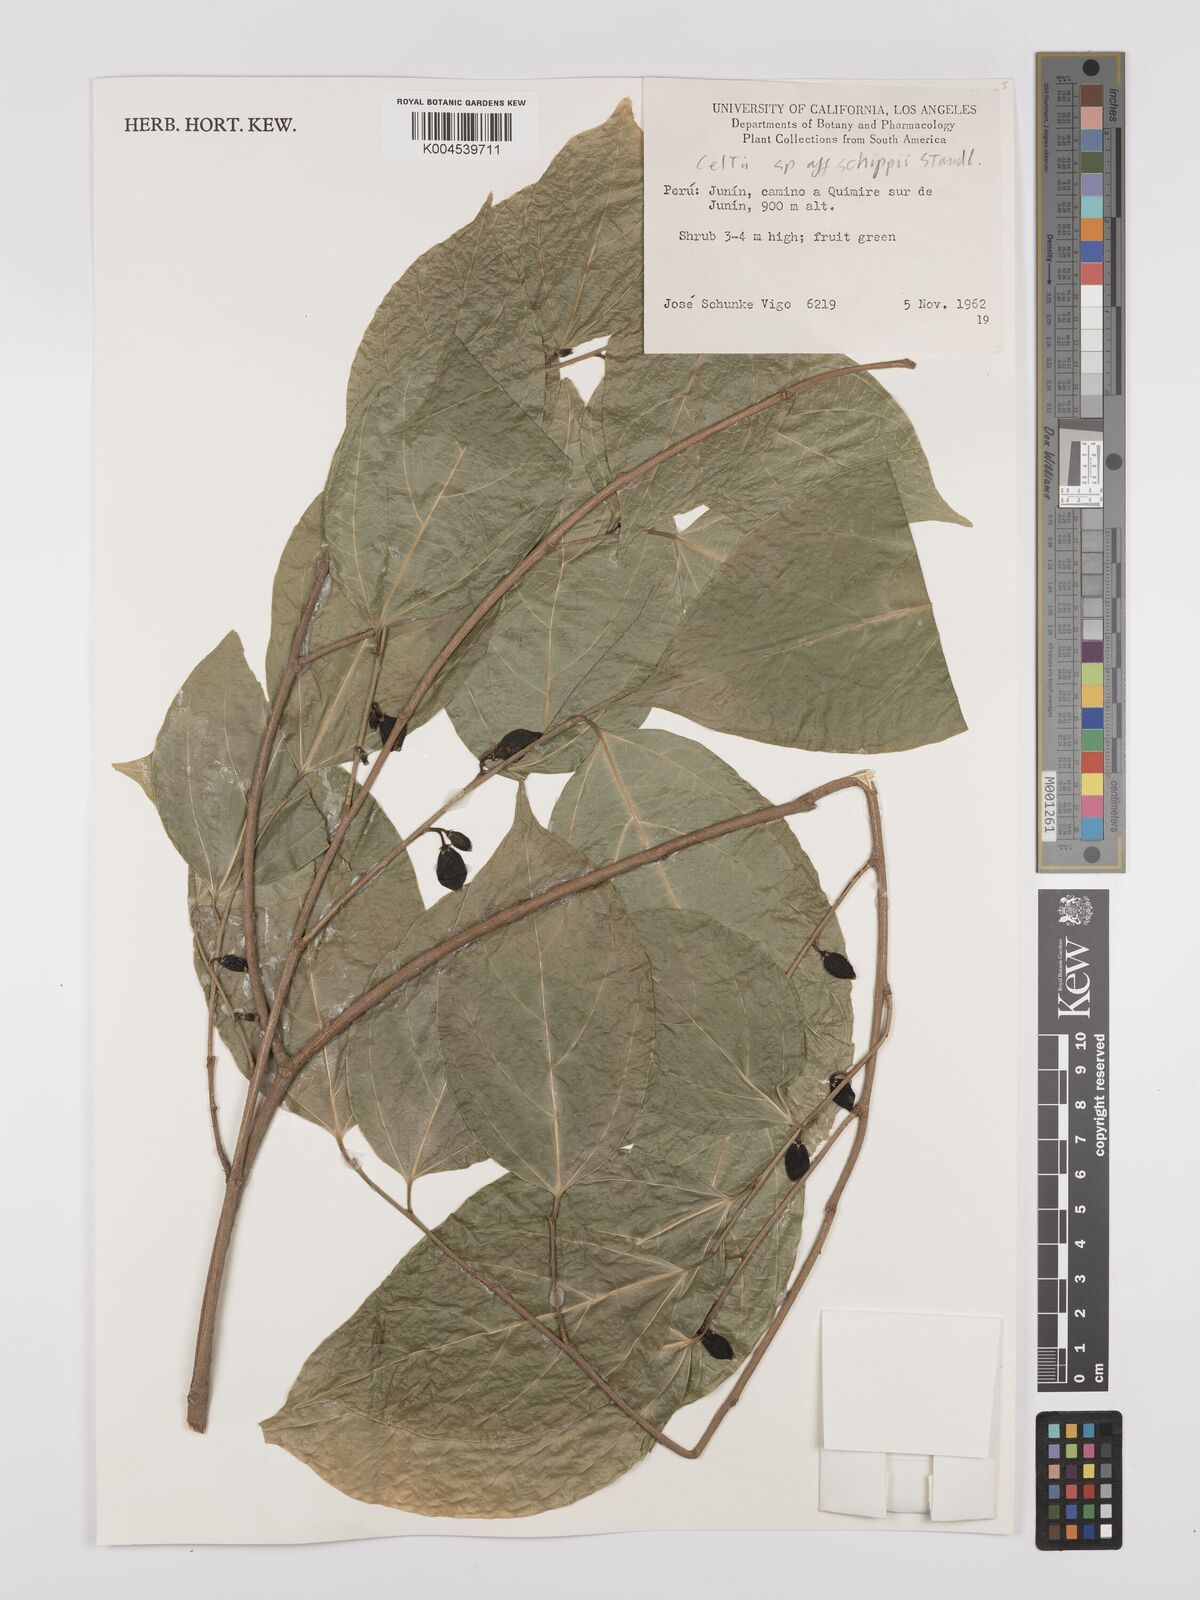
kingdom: Plantae
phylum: Tracheophyta
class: Magnoliopsida
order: Rosales
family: Cannabaceae
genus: Celtis
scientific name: Celtis schippii
